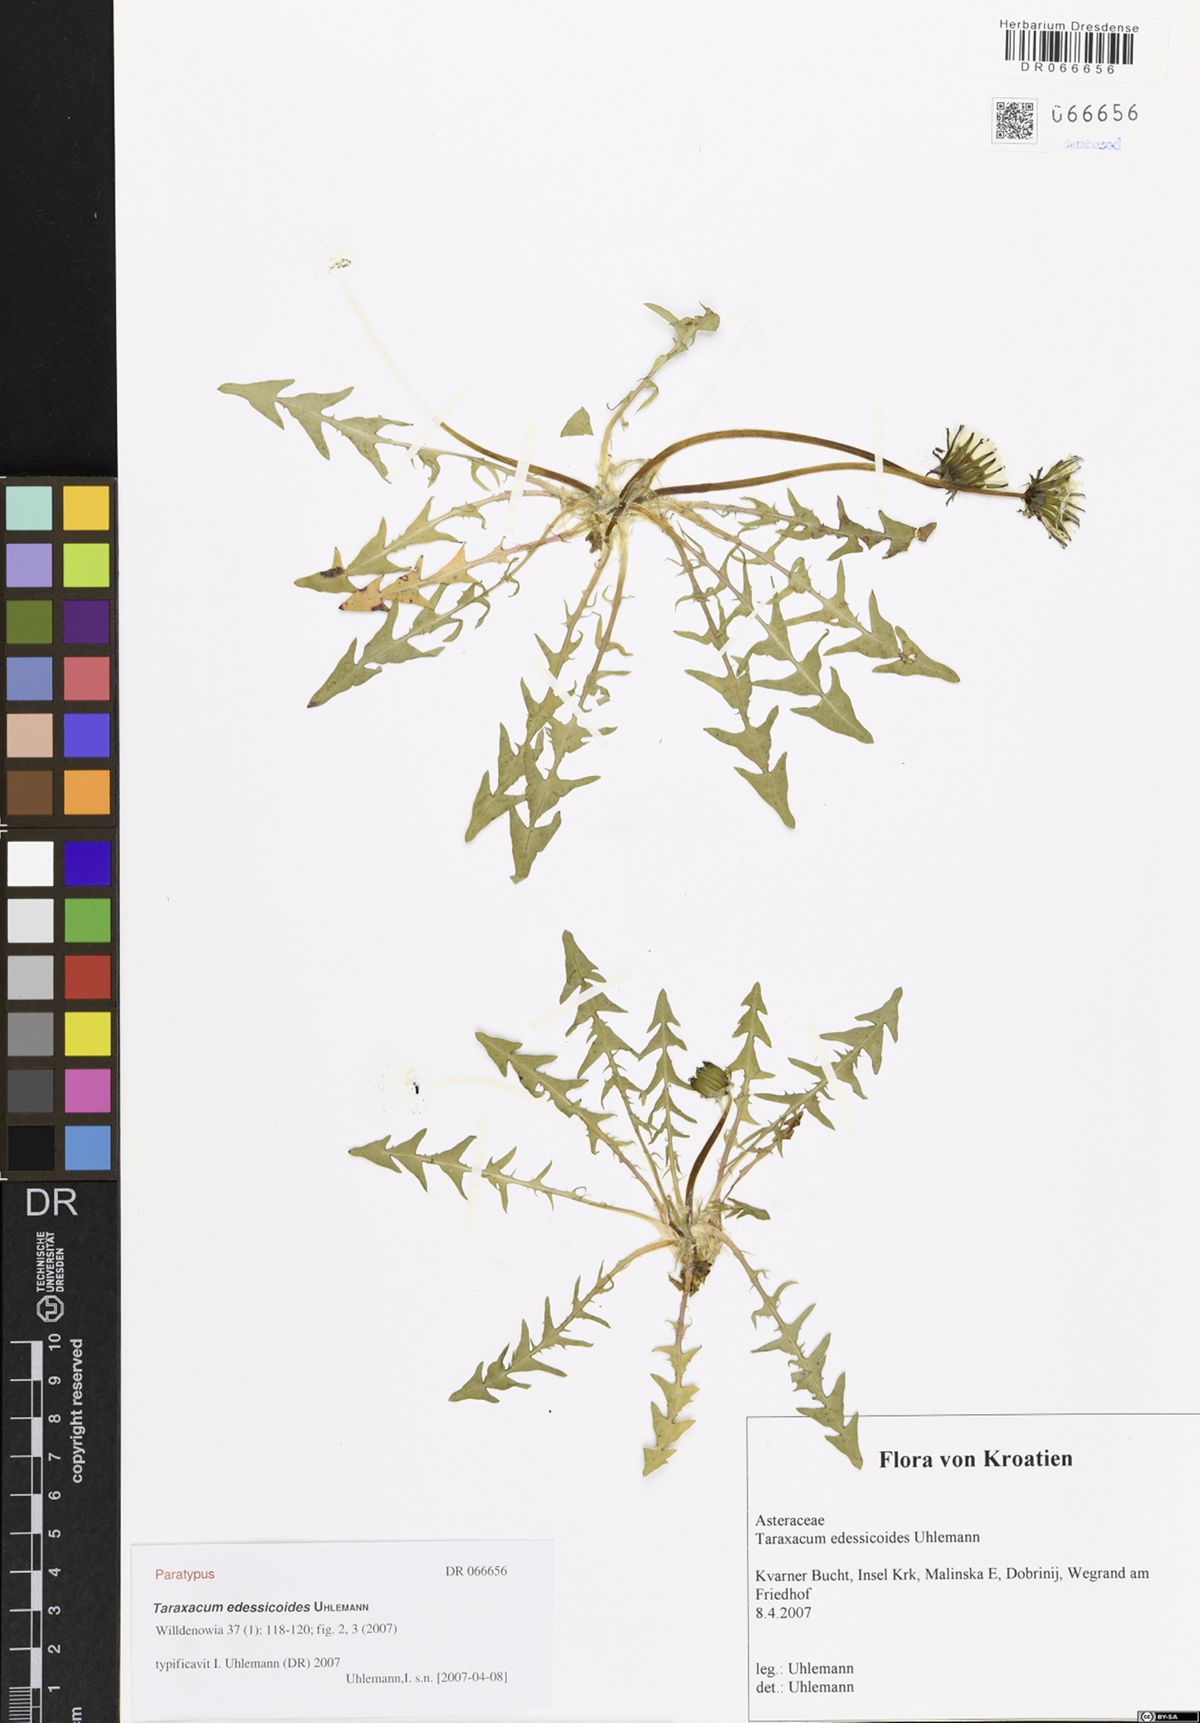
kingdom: Plantae
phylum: Tracheophyta
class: Magnoliopsida
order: Asterales
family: Asteraceae
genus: Taraxacum
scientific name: Taraxacum edessicoides
